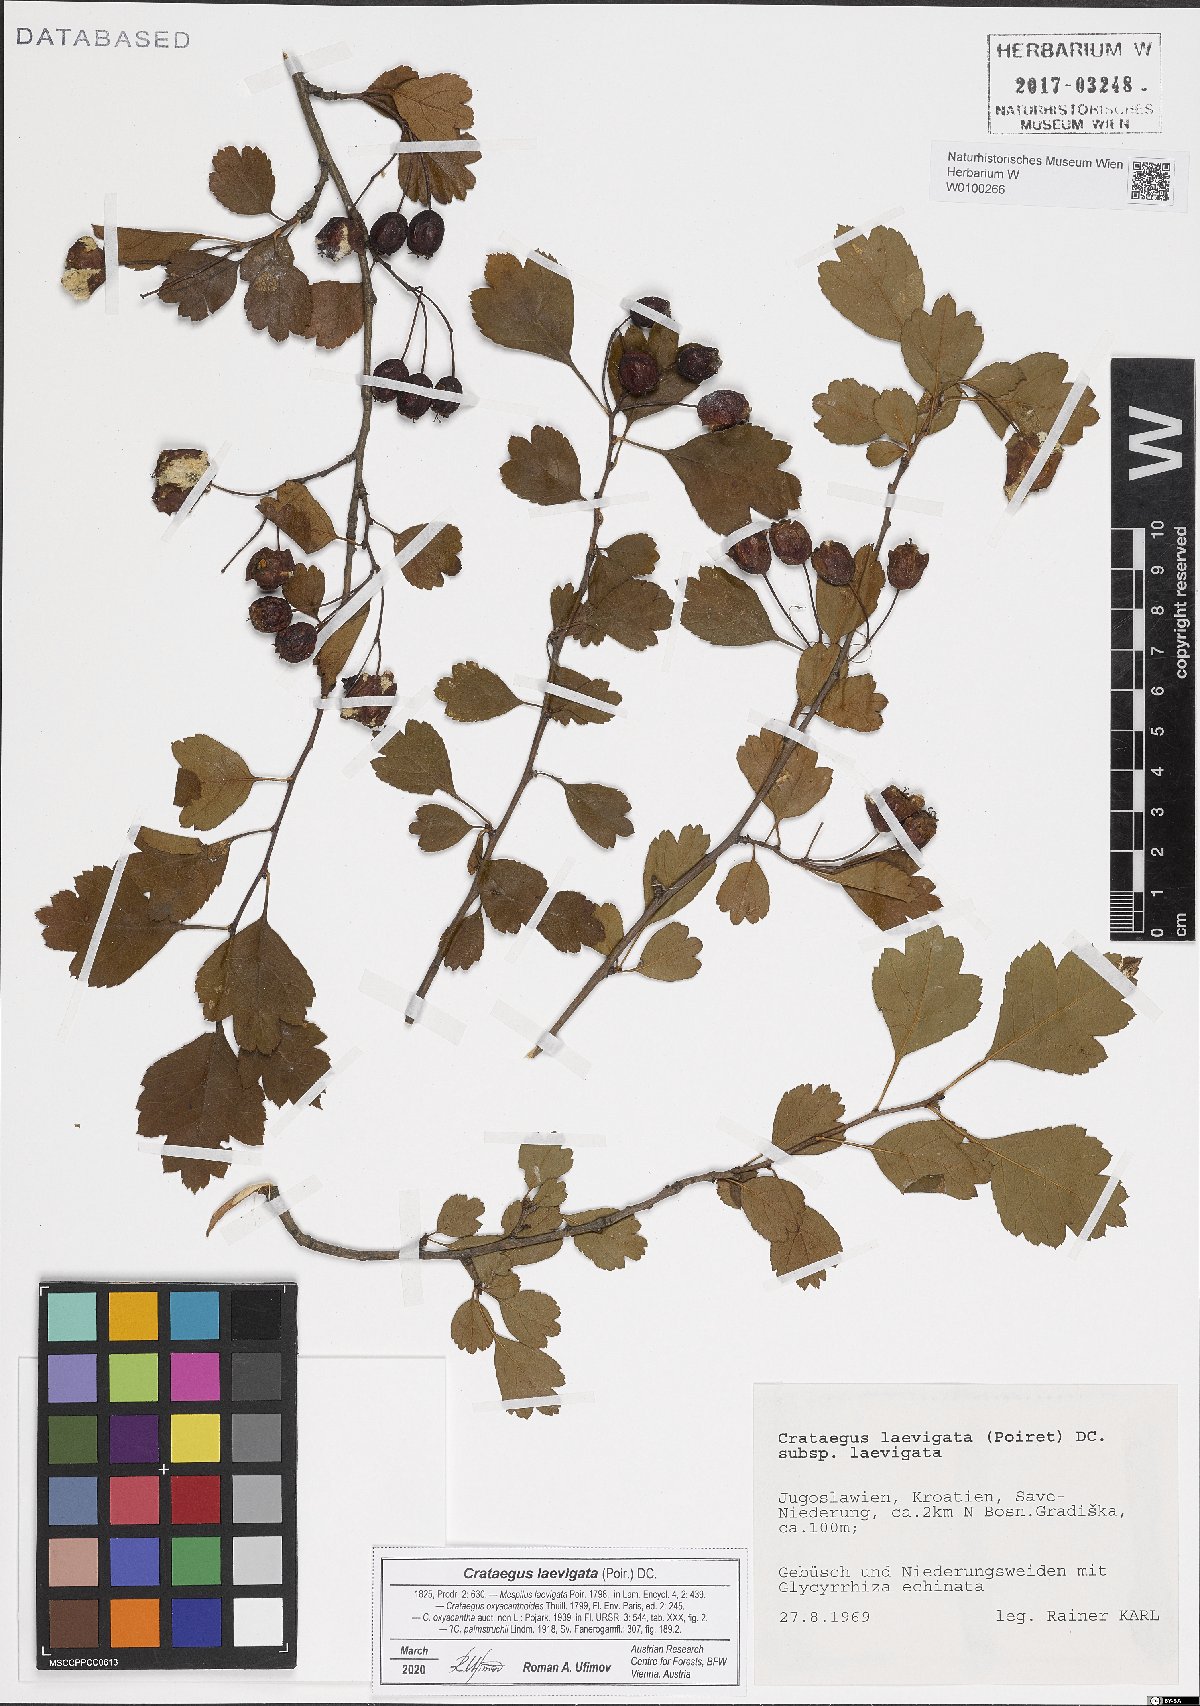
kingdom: Plantae
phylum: Tracheophyta
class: Magnoliopsida
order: Rosales
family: Rosaceae
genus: Crataegus
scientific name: Crataegus laevigata
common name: Midland hawthorn
